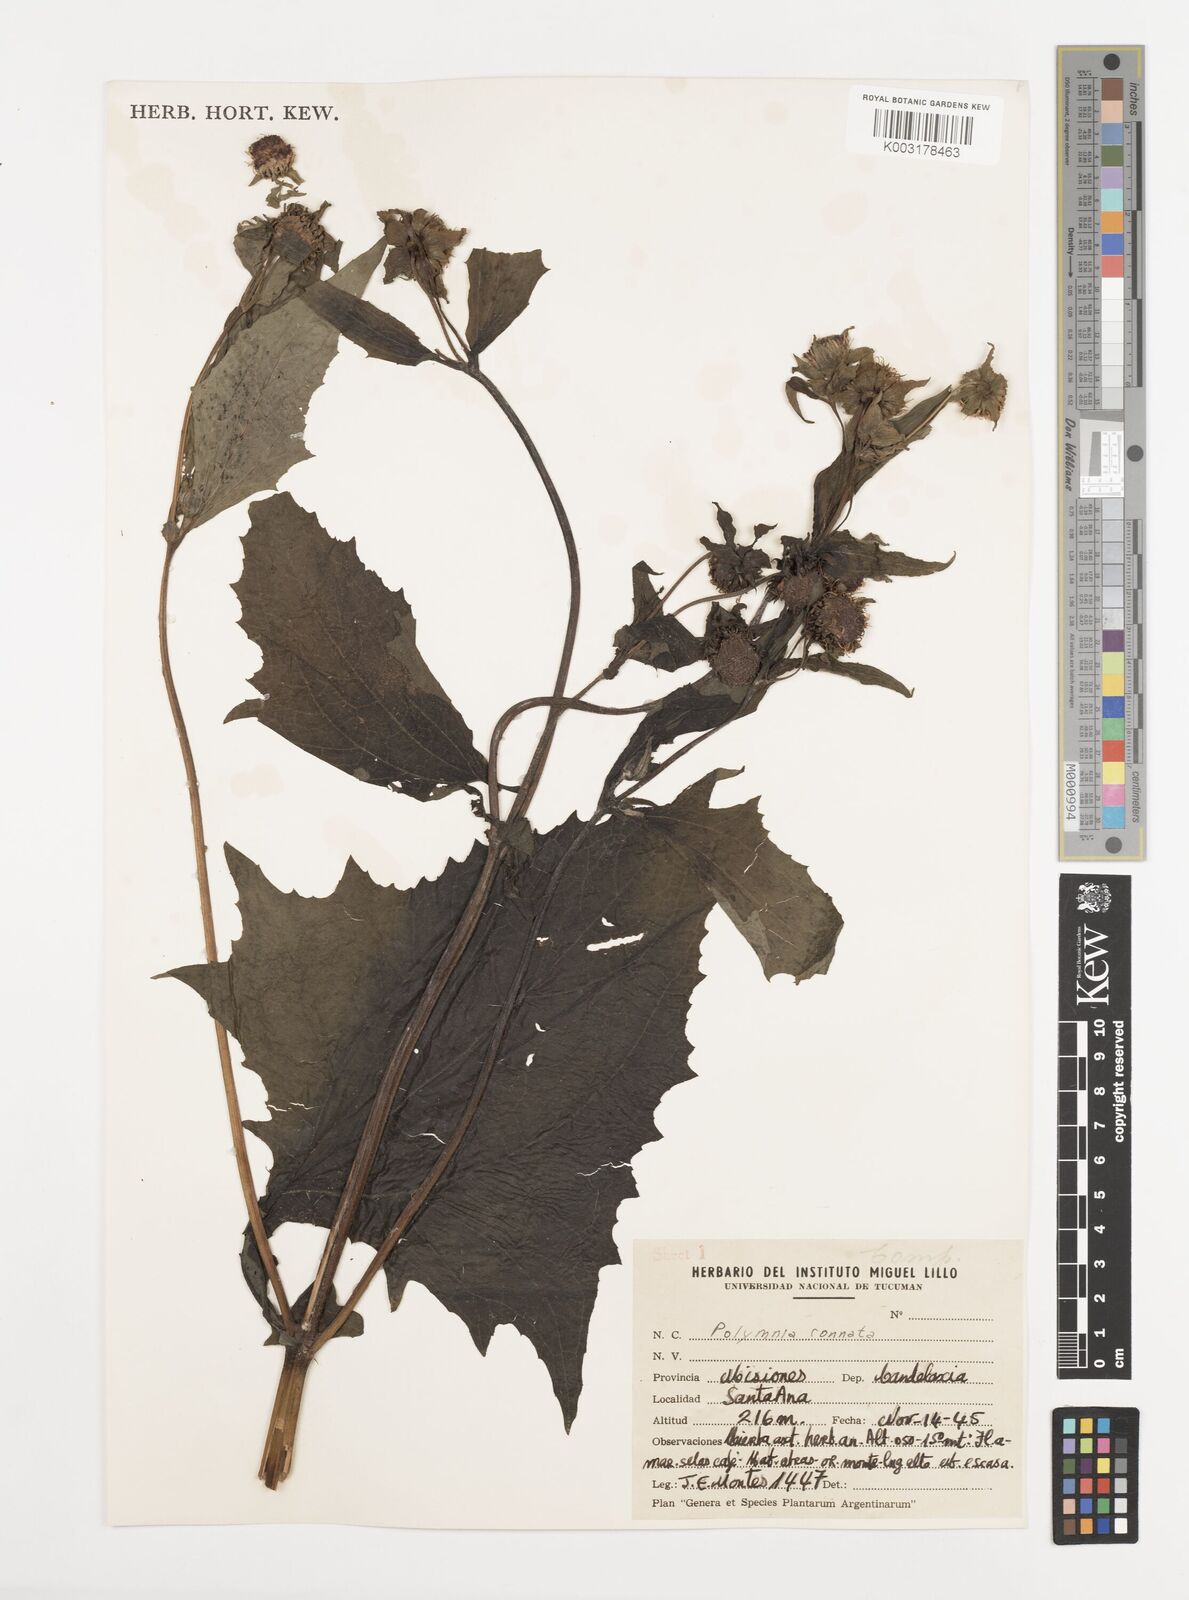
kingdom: Plantae
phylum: Tracheophyta
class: Magnoliopsida
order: Asterales
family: Asteraceae
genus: Smallanthus
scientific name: Smallanthus connatus
